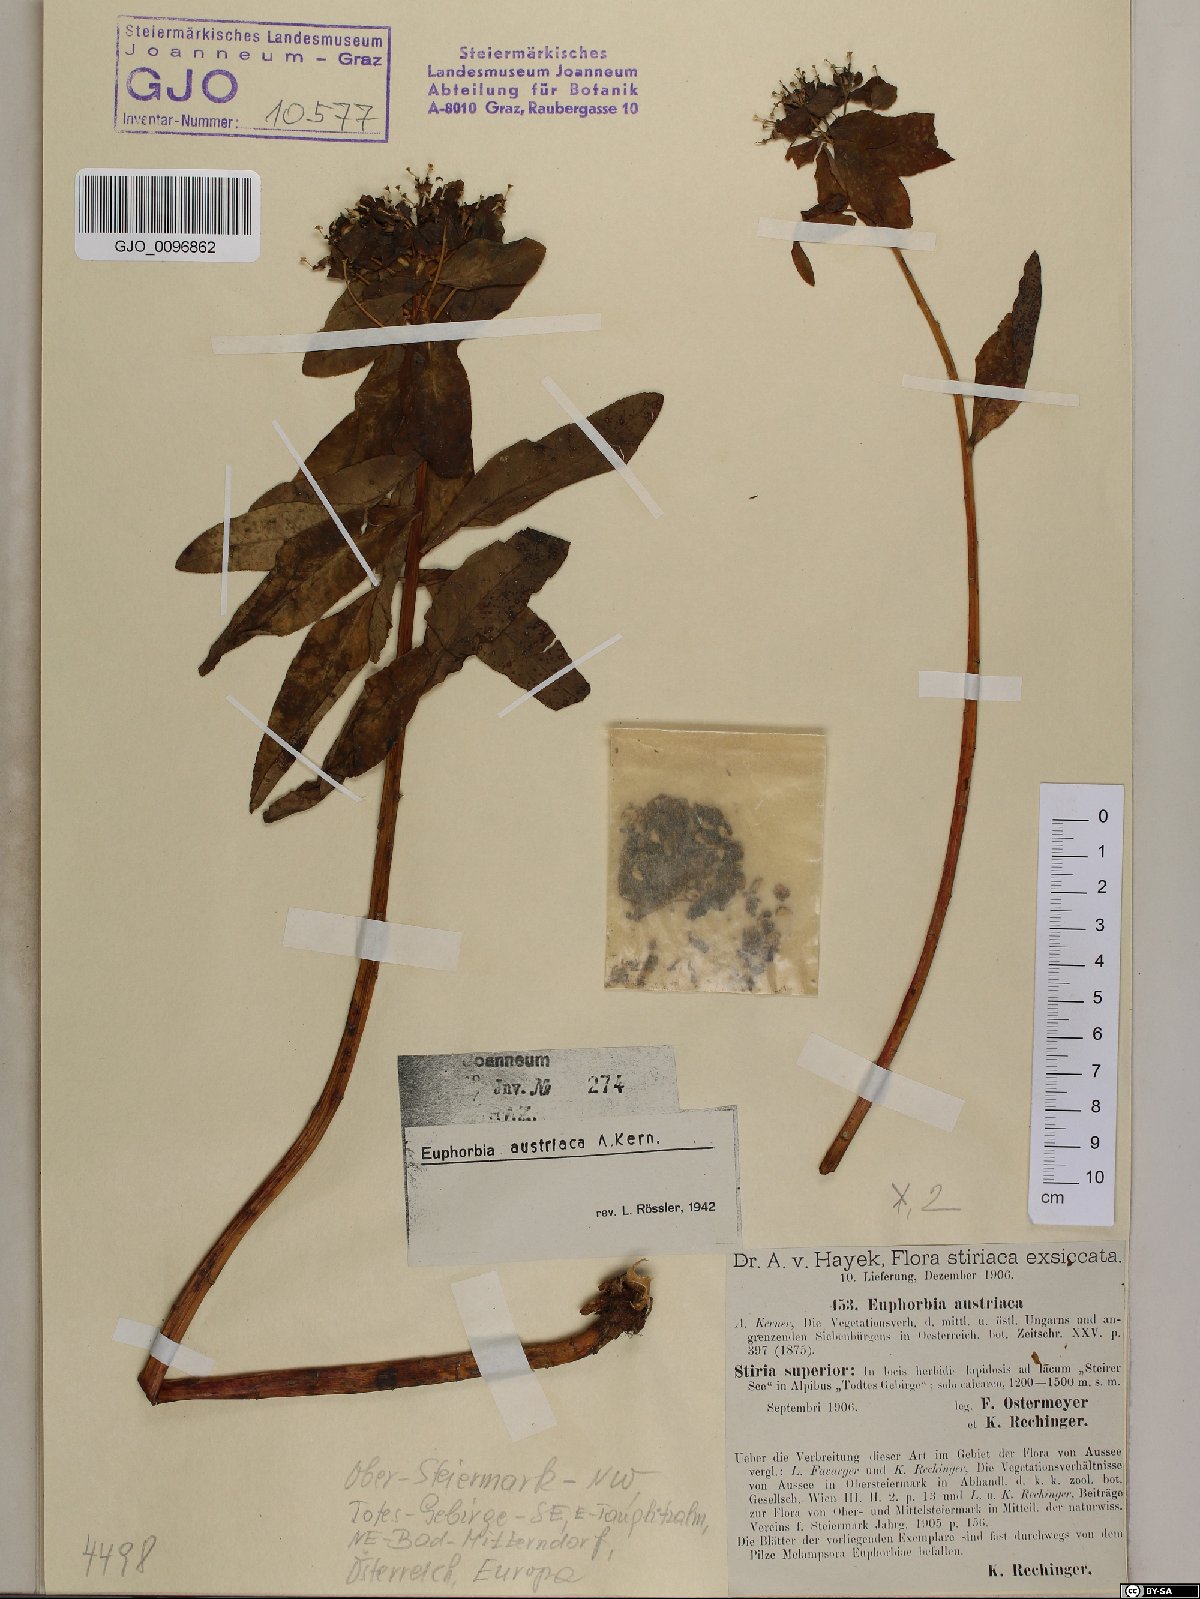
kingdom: Plantae
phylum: Tracheophyta
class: Magnoliopsida
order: Malpighiales
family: Euphorbiaceae
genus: Euphorbia
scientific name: Euphorbia austriaca
